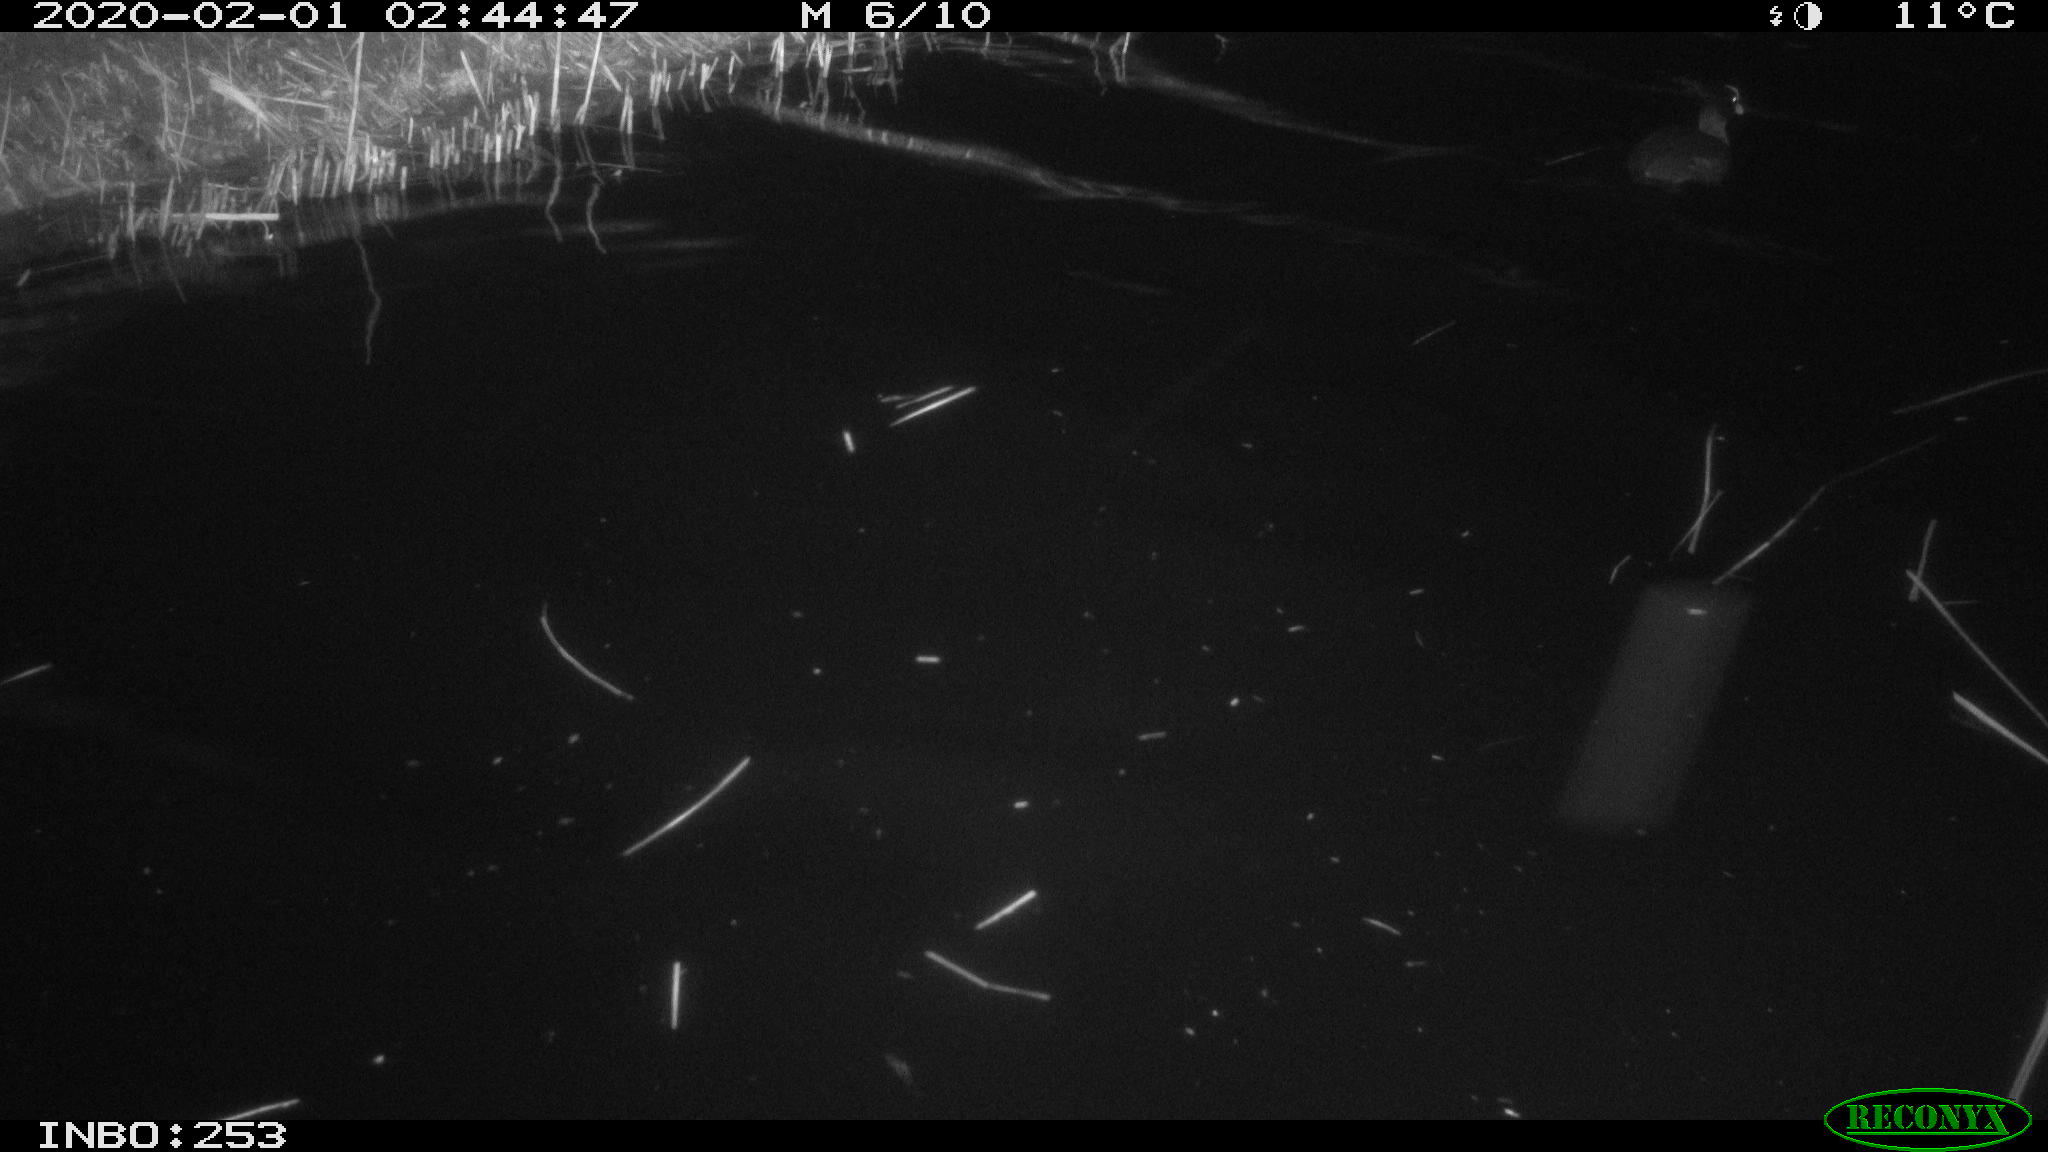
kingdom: Animalia
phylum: Chordata
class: Aves
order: Gruiformes
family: Rallidae
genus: Fulica
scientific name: Fulica atra
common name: Eurasian coot
